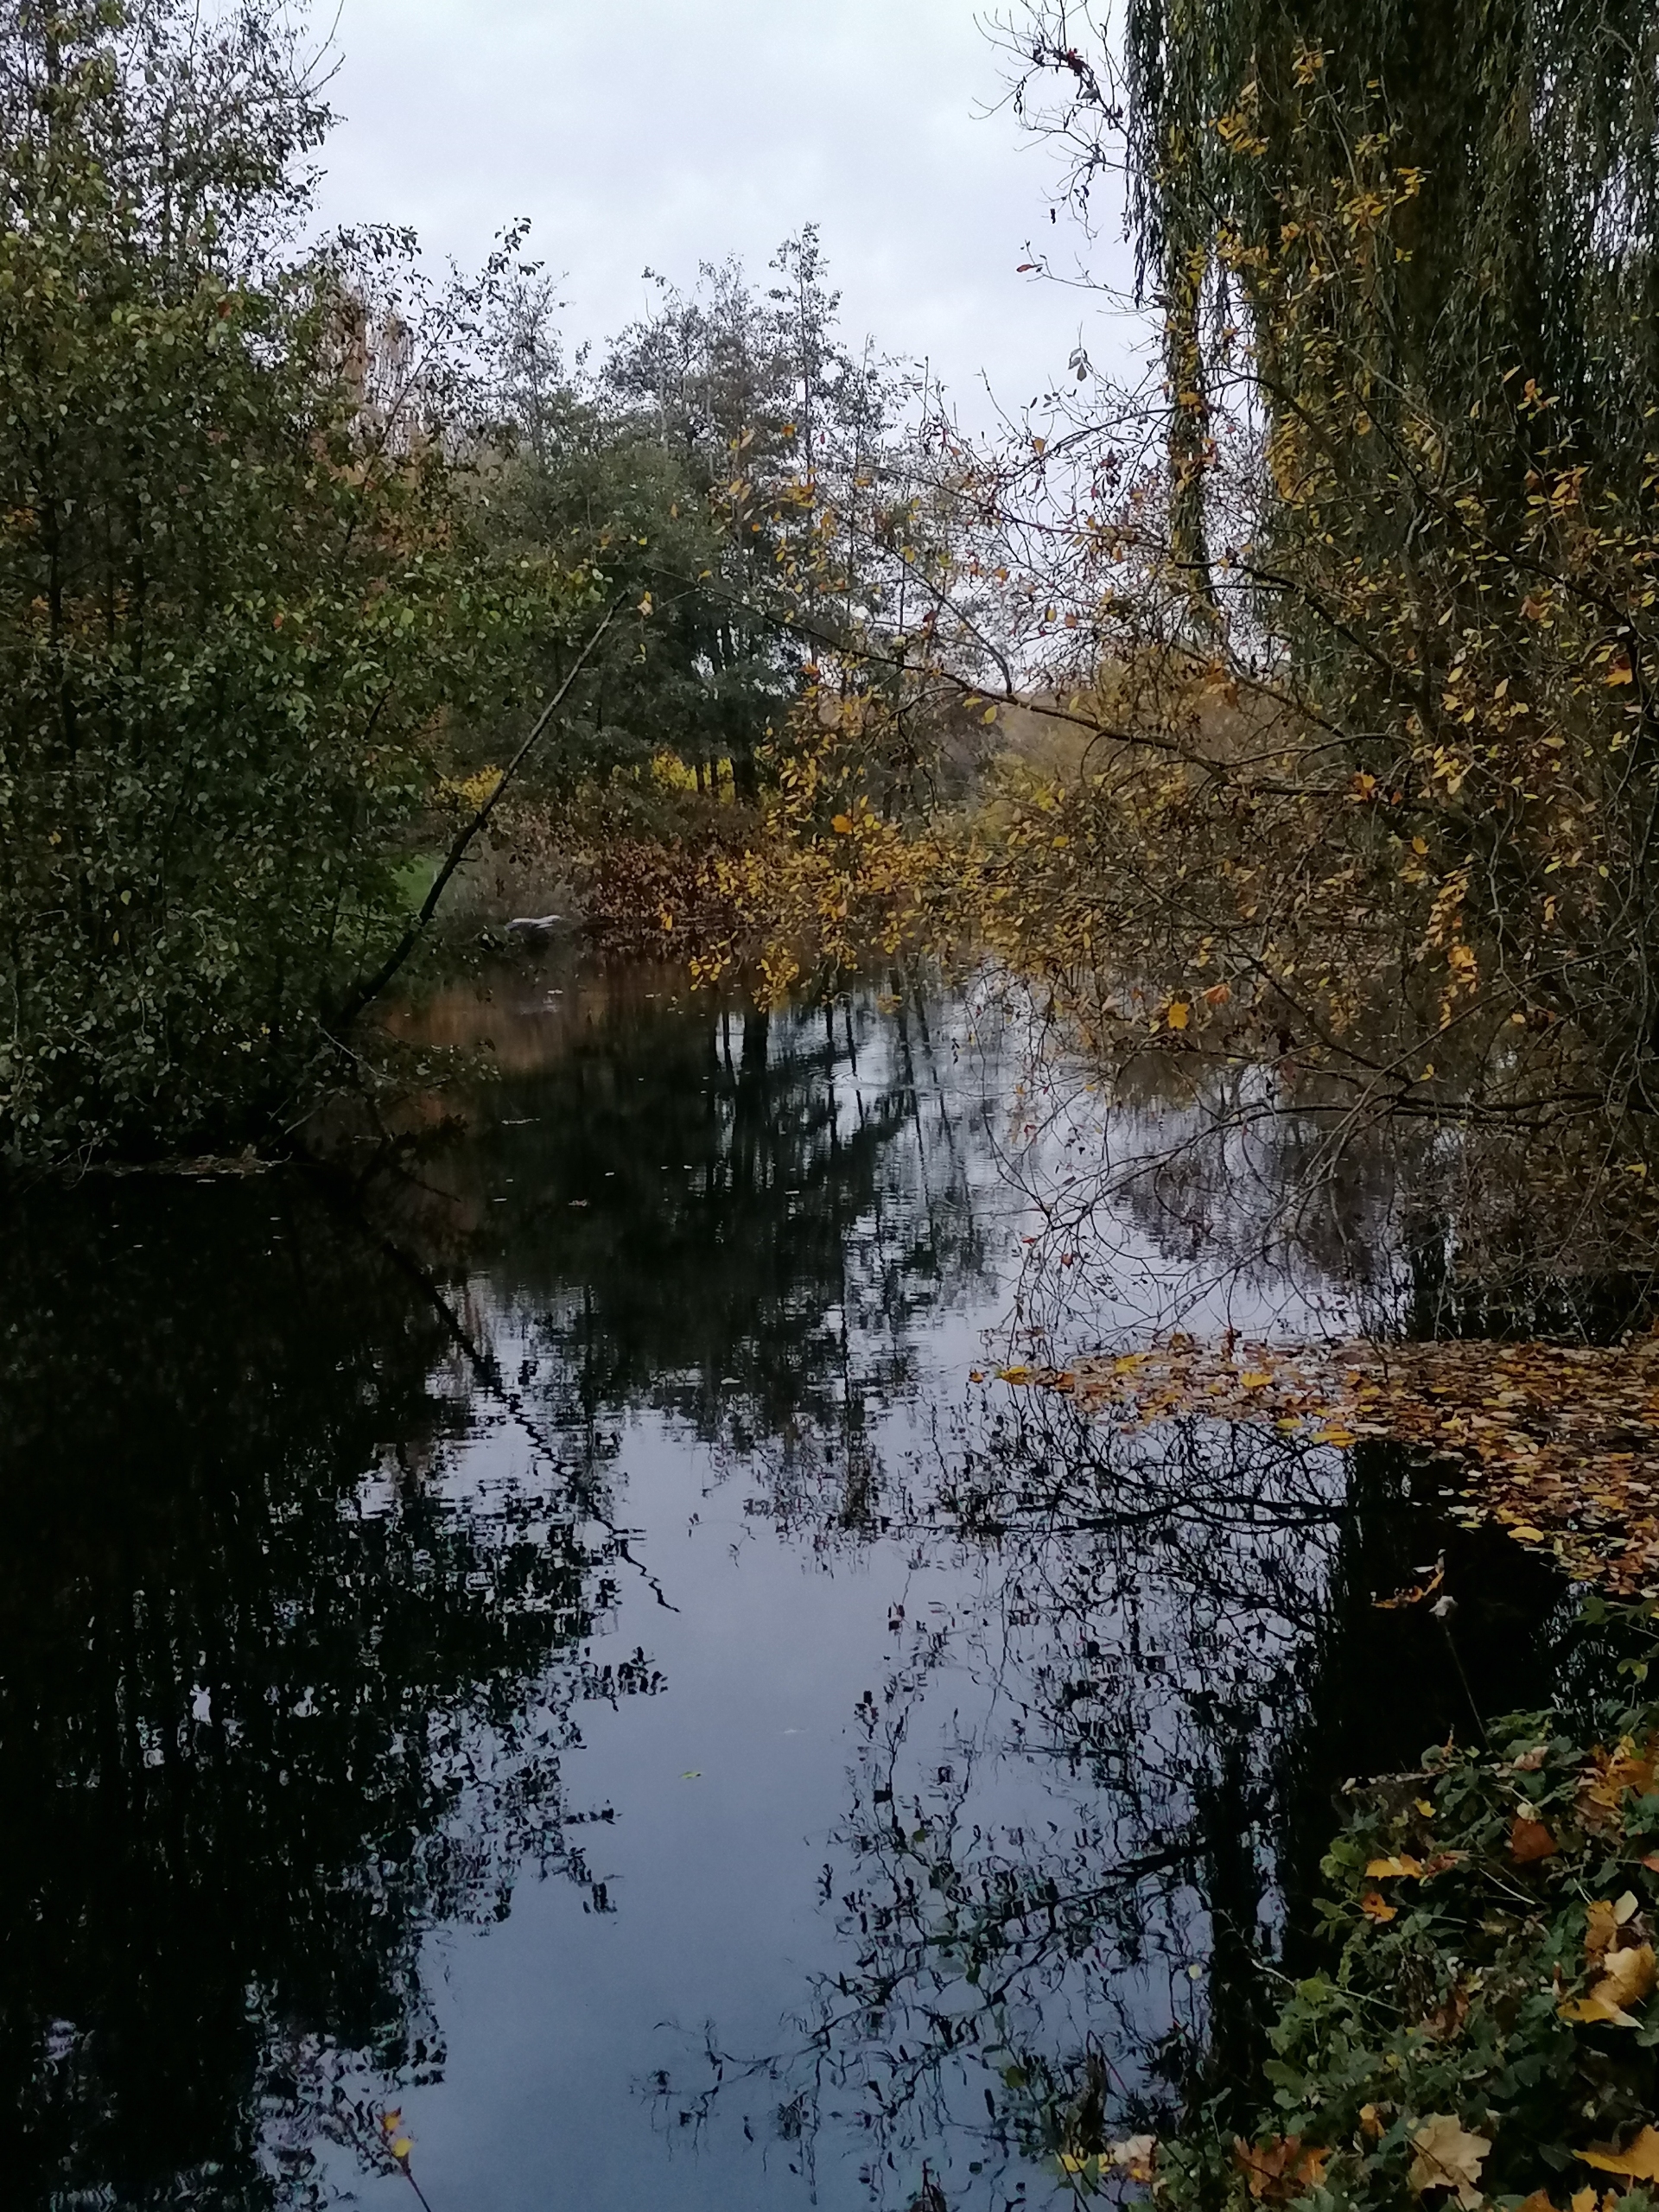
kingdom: Animalia
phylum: Chordata
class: Aves
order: Pelecaniformes
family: Ardeidae
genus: Ardea
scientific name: Ardea cinerea
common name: Fiskehejre
